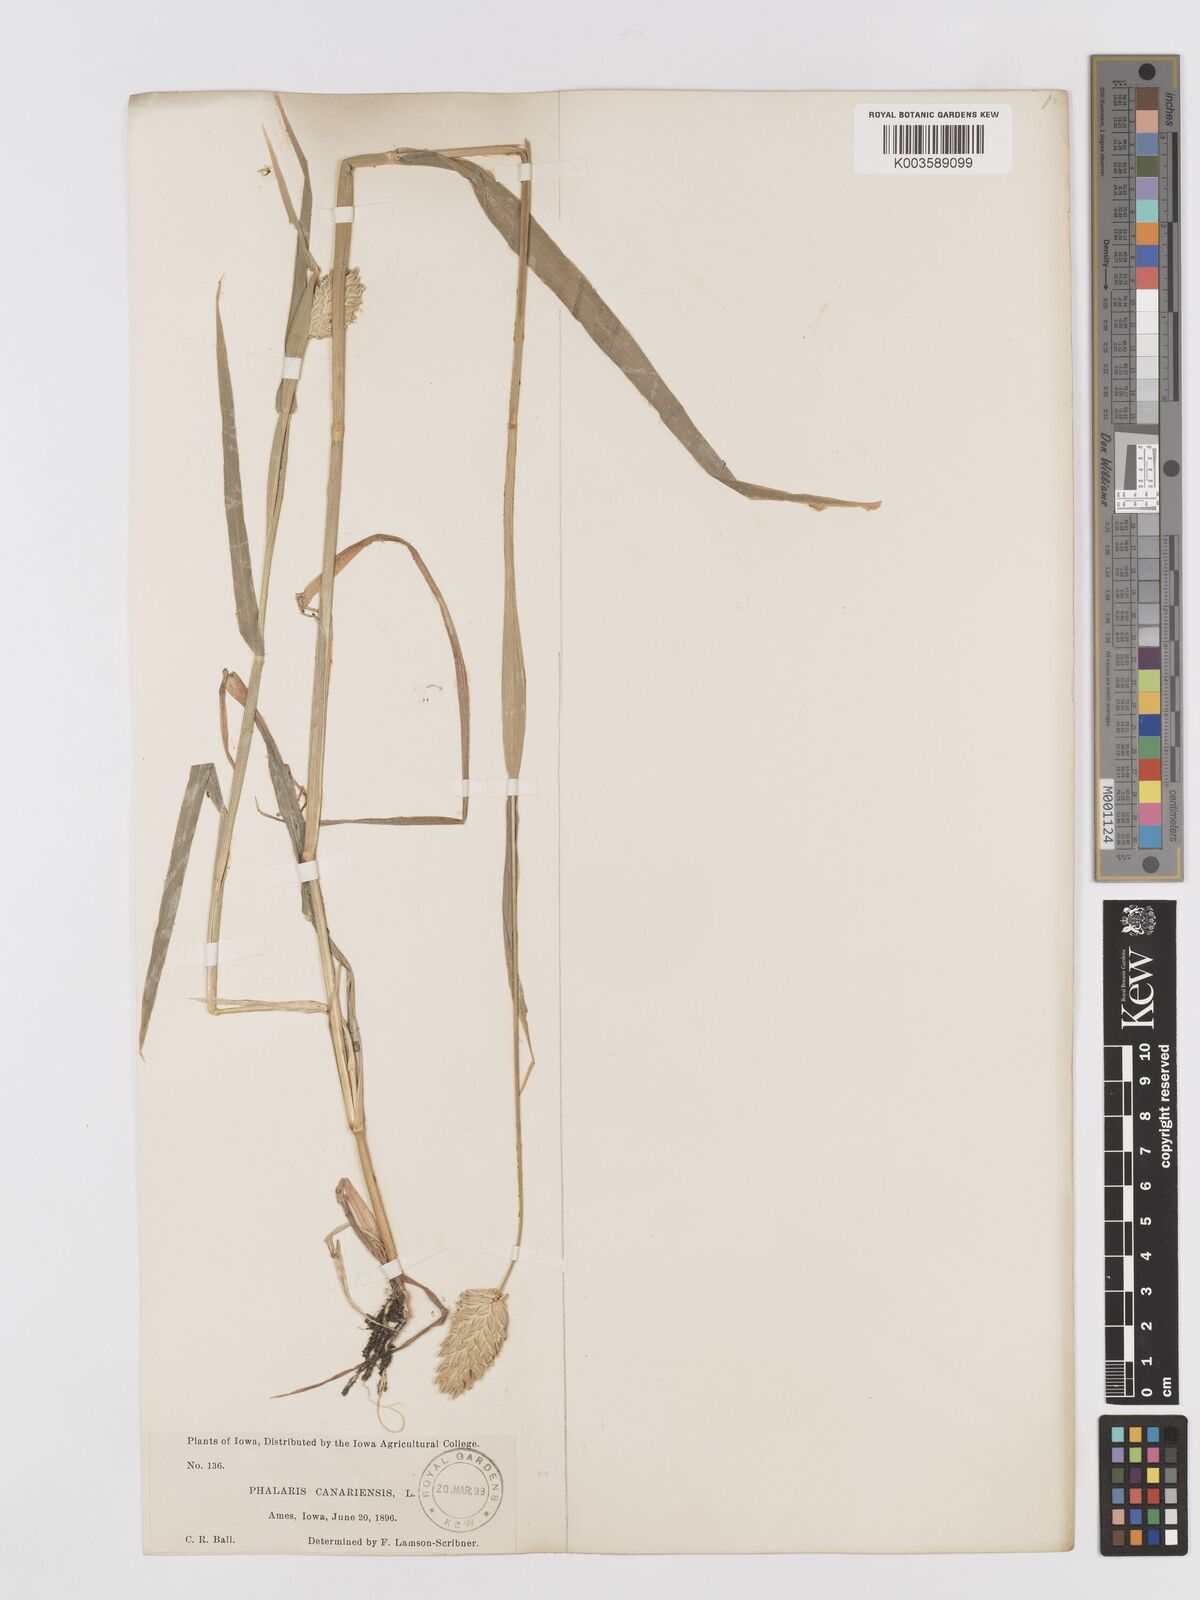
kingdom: Plantae
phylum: Tracheophyta
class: Liliopsida
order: Poales
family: Poaceae
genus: Phalaris
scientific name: Phalaris canariensis
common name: Annual canarygrass
